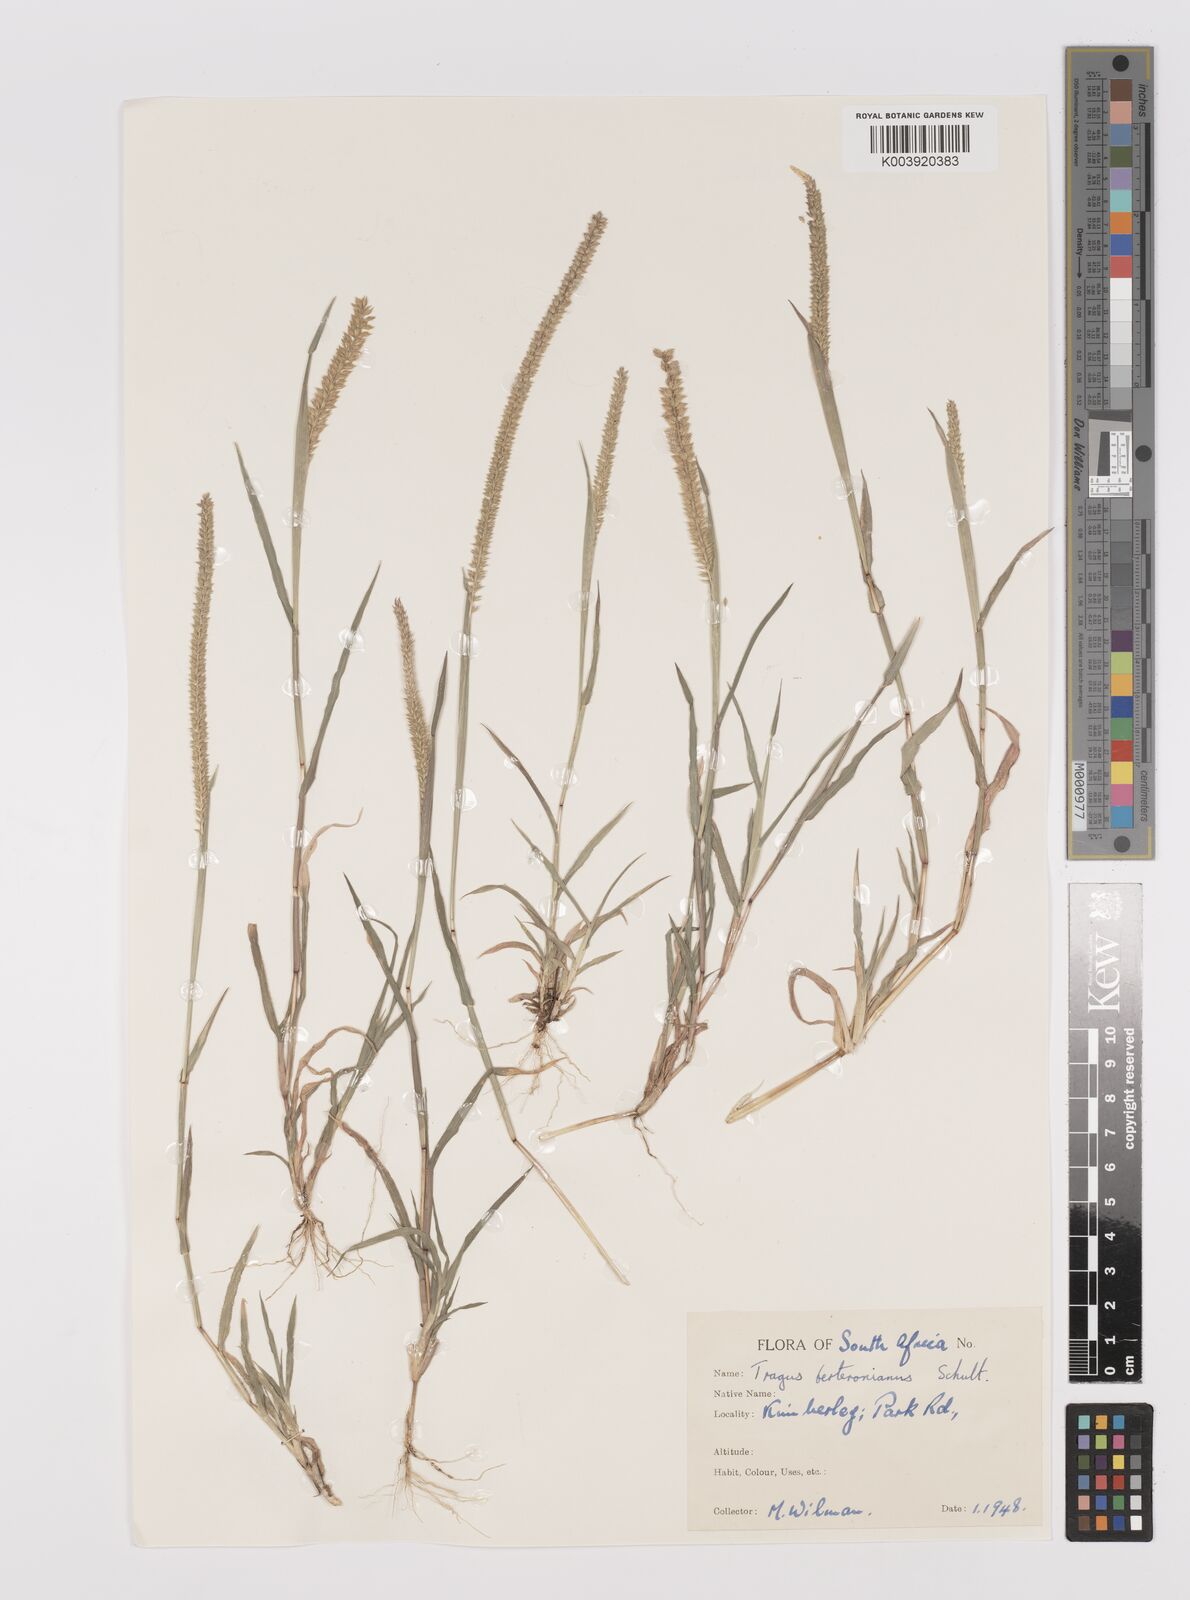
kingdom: Plantae
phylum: Tracheophyta
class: Liliopsida
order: Poales
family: Poaceae
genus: Tragus
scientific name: Tragus berteronianus
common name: African bur-grass
